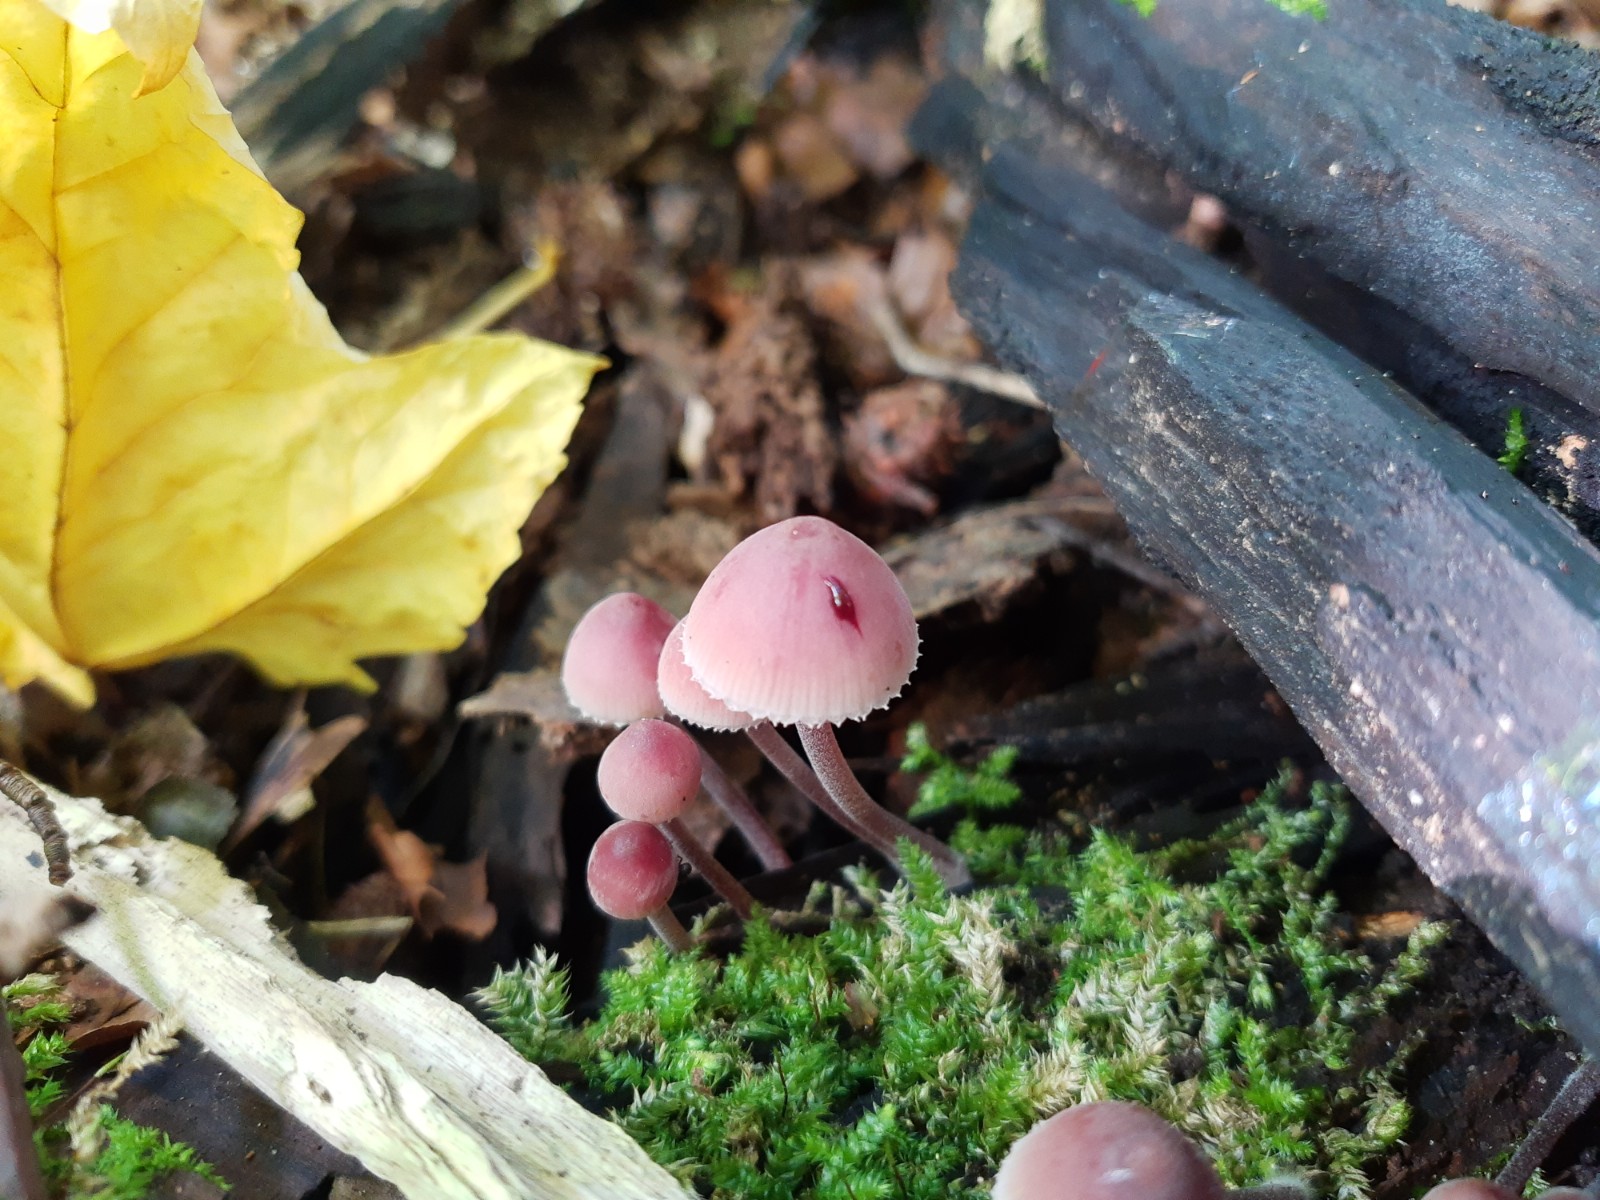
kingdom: Fungi
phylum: Basidiomycota
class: Agaricomycetes
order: Agaricales
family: Mycenaceae
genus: Mycena
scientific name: Mycena haematopus
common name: blødende huesvamp
